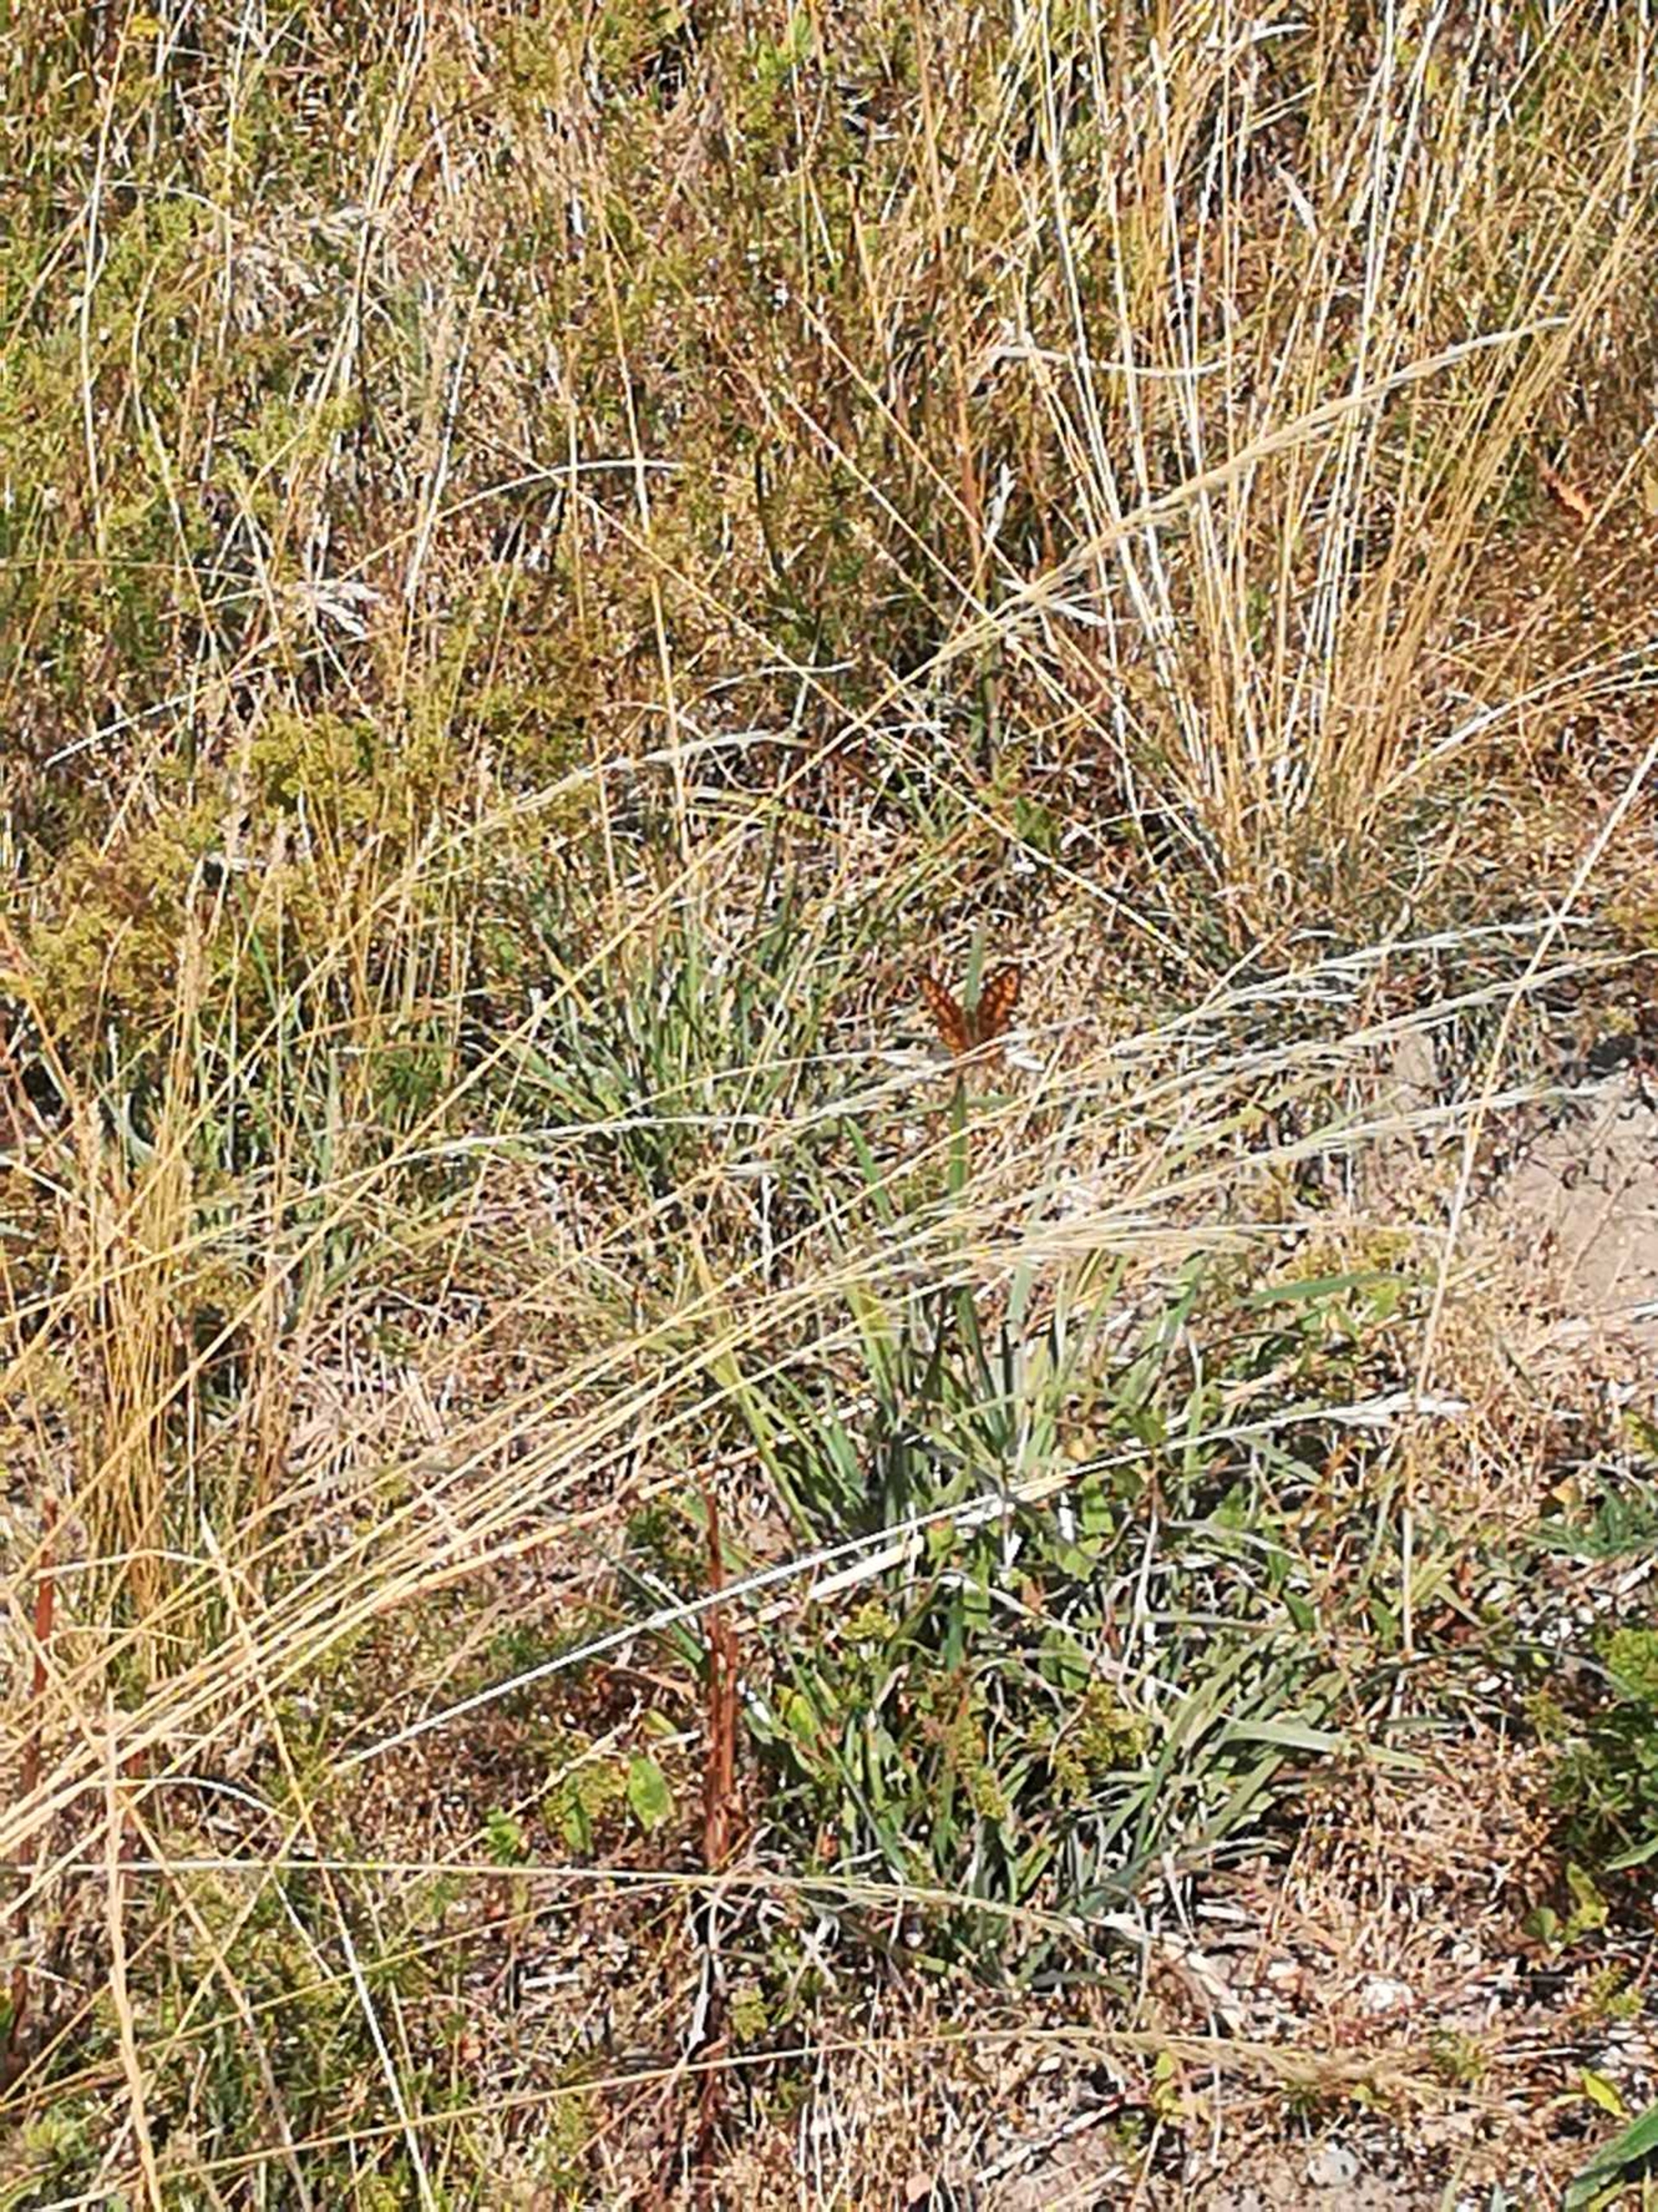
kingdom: Animalia
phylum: Arthropoda
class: Insecta
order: Lepidoptera
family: Nymphalidae
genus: Pararge
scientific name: Pararge Lasiommata megera
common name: Vejrandøje
